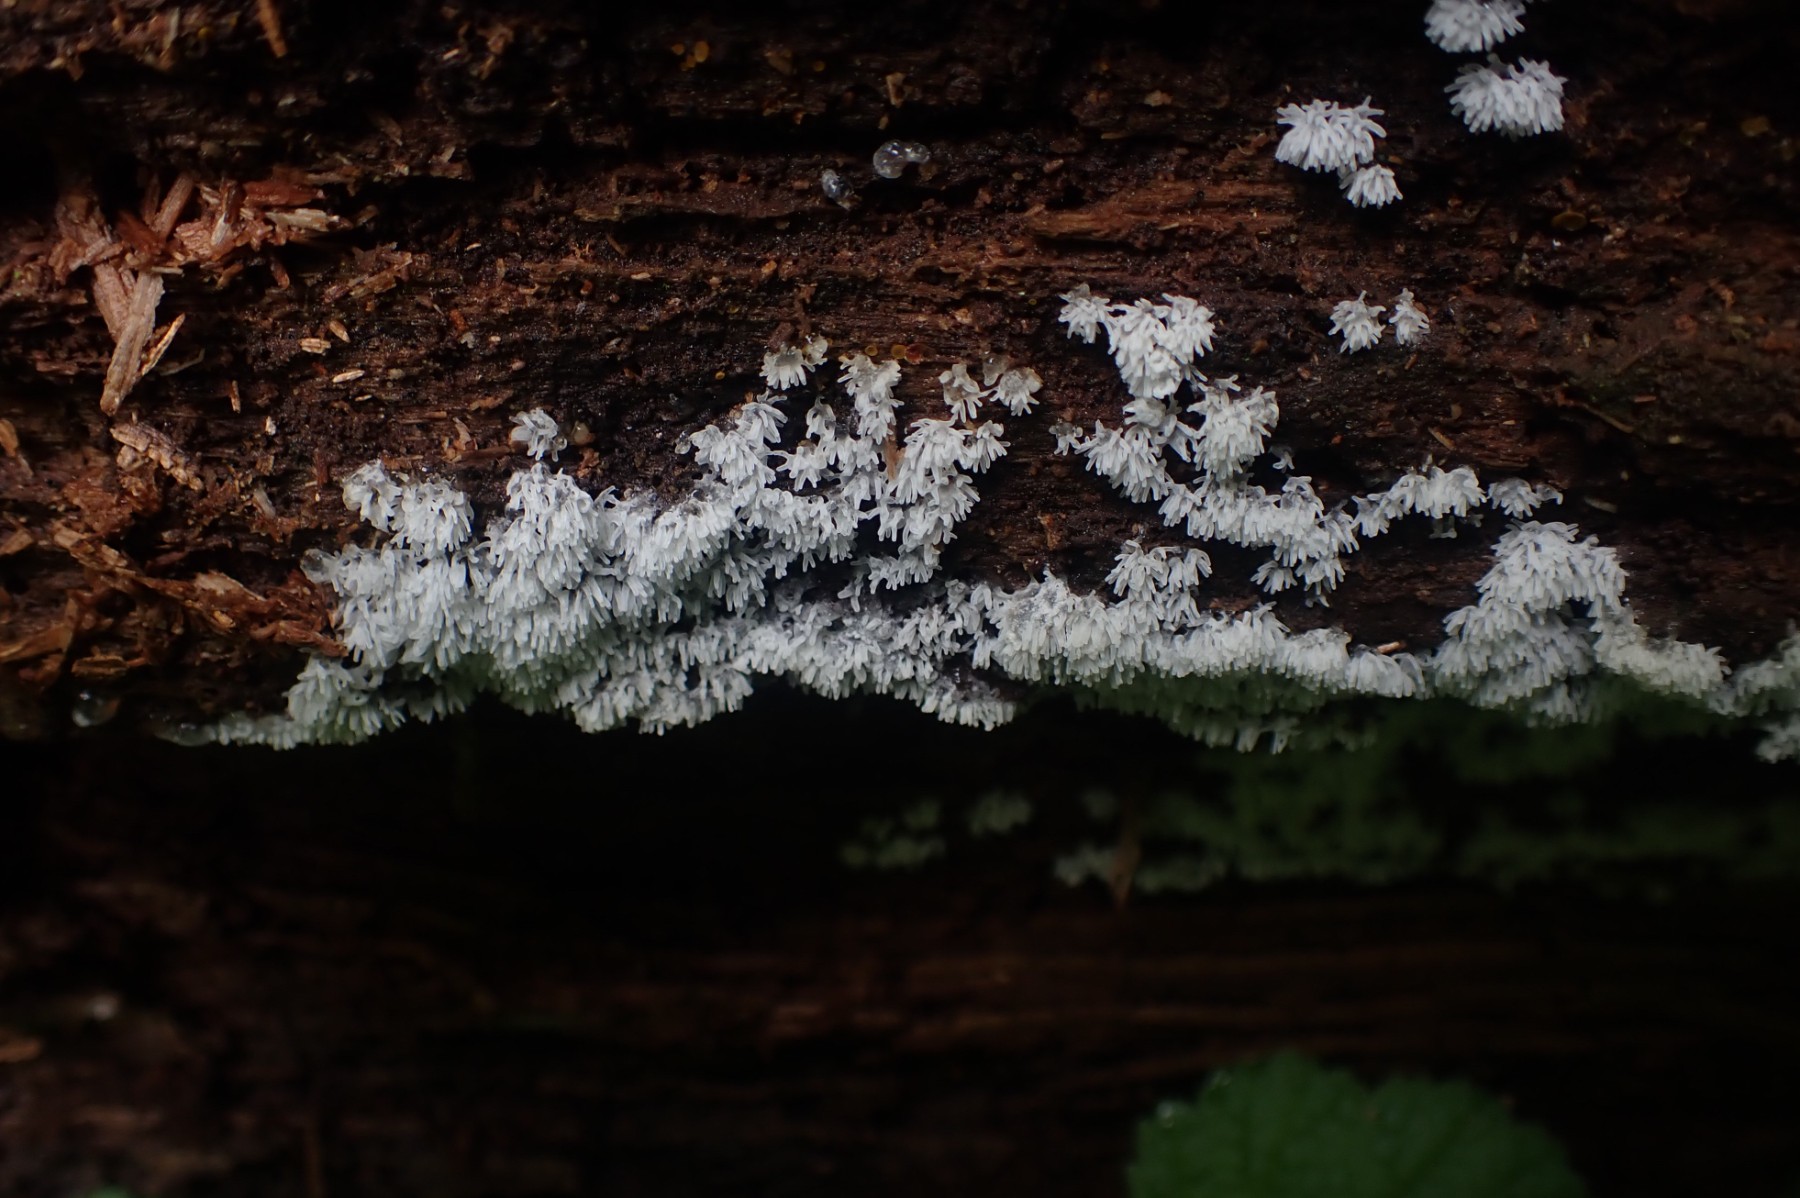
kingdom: Protozoa
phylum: Mycetozoa
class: Protosteliomycetes
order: Ceratiomyxales
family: Ceratiomyxaceae
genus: Ceratiomyxa
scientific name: Ceratiomyxa fruticulosa
